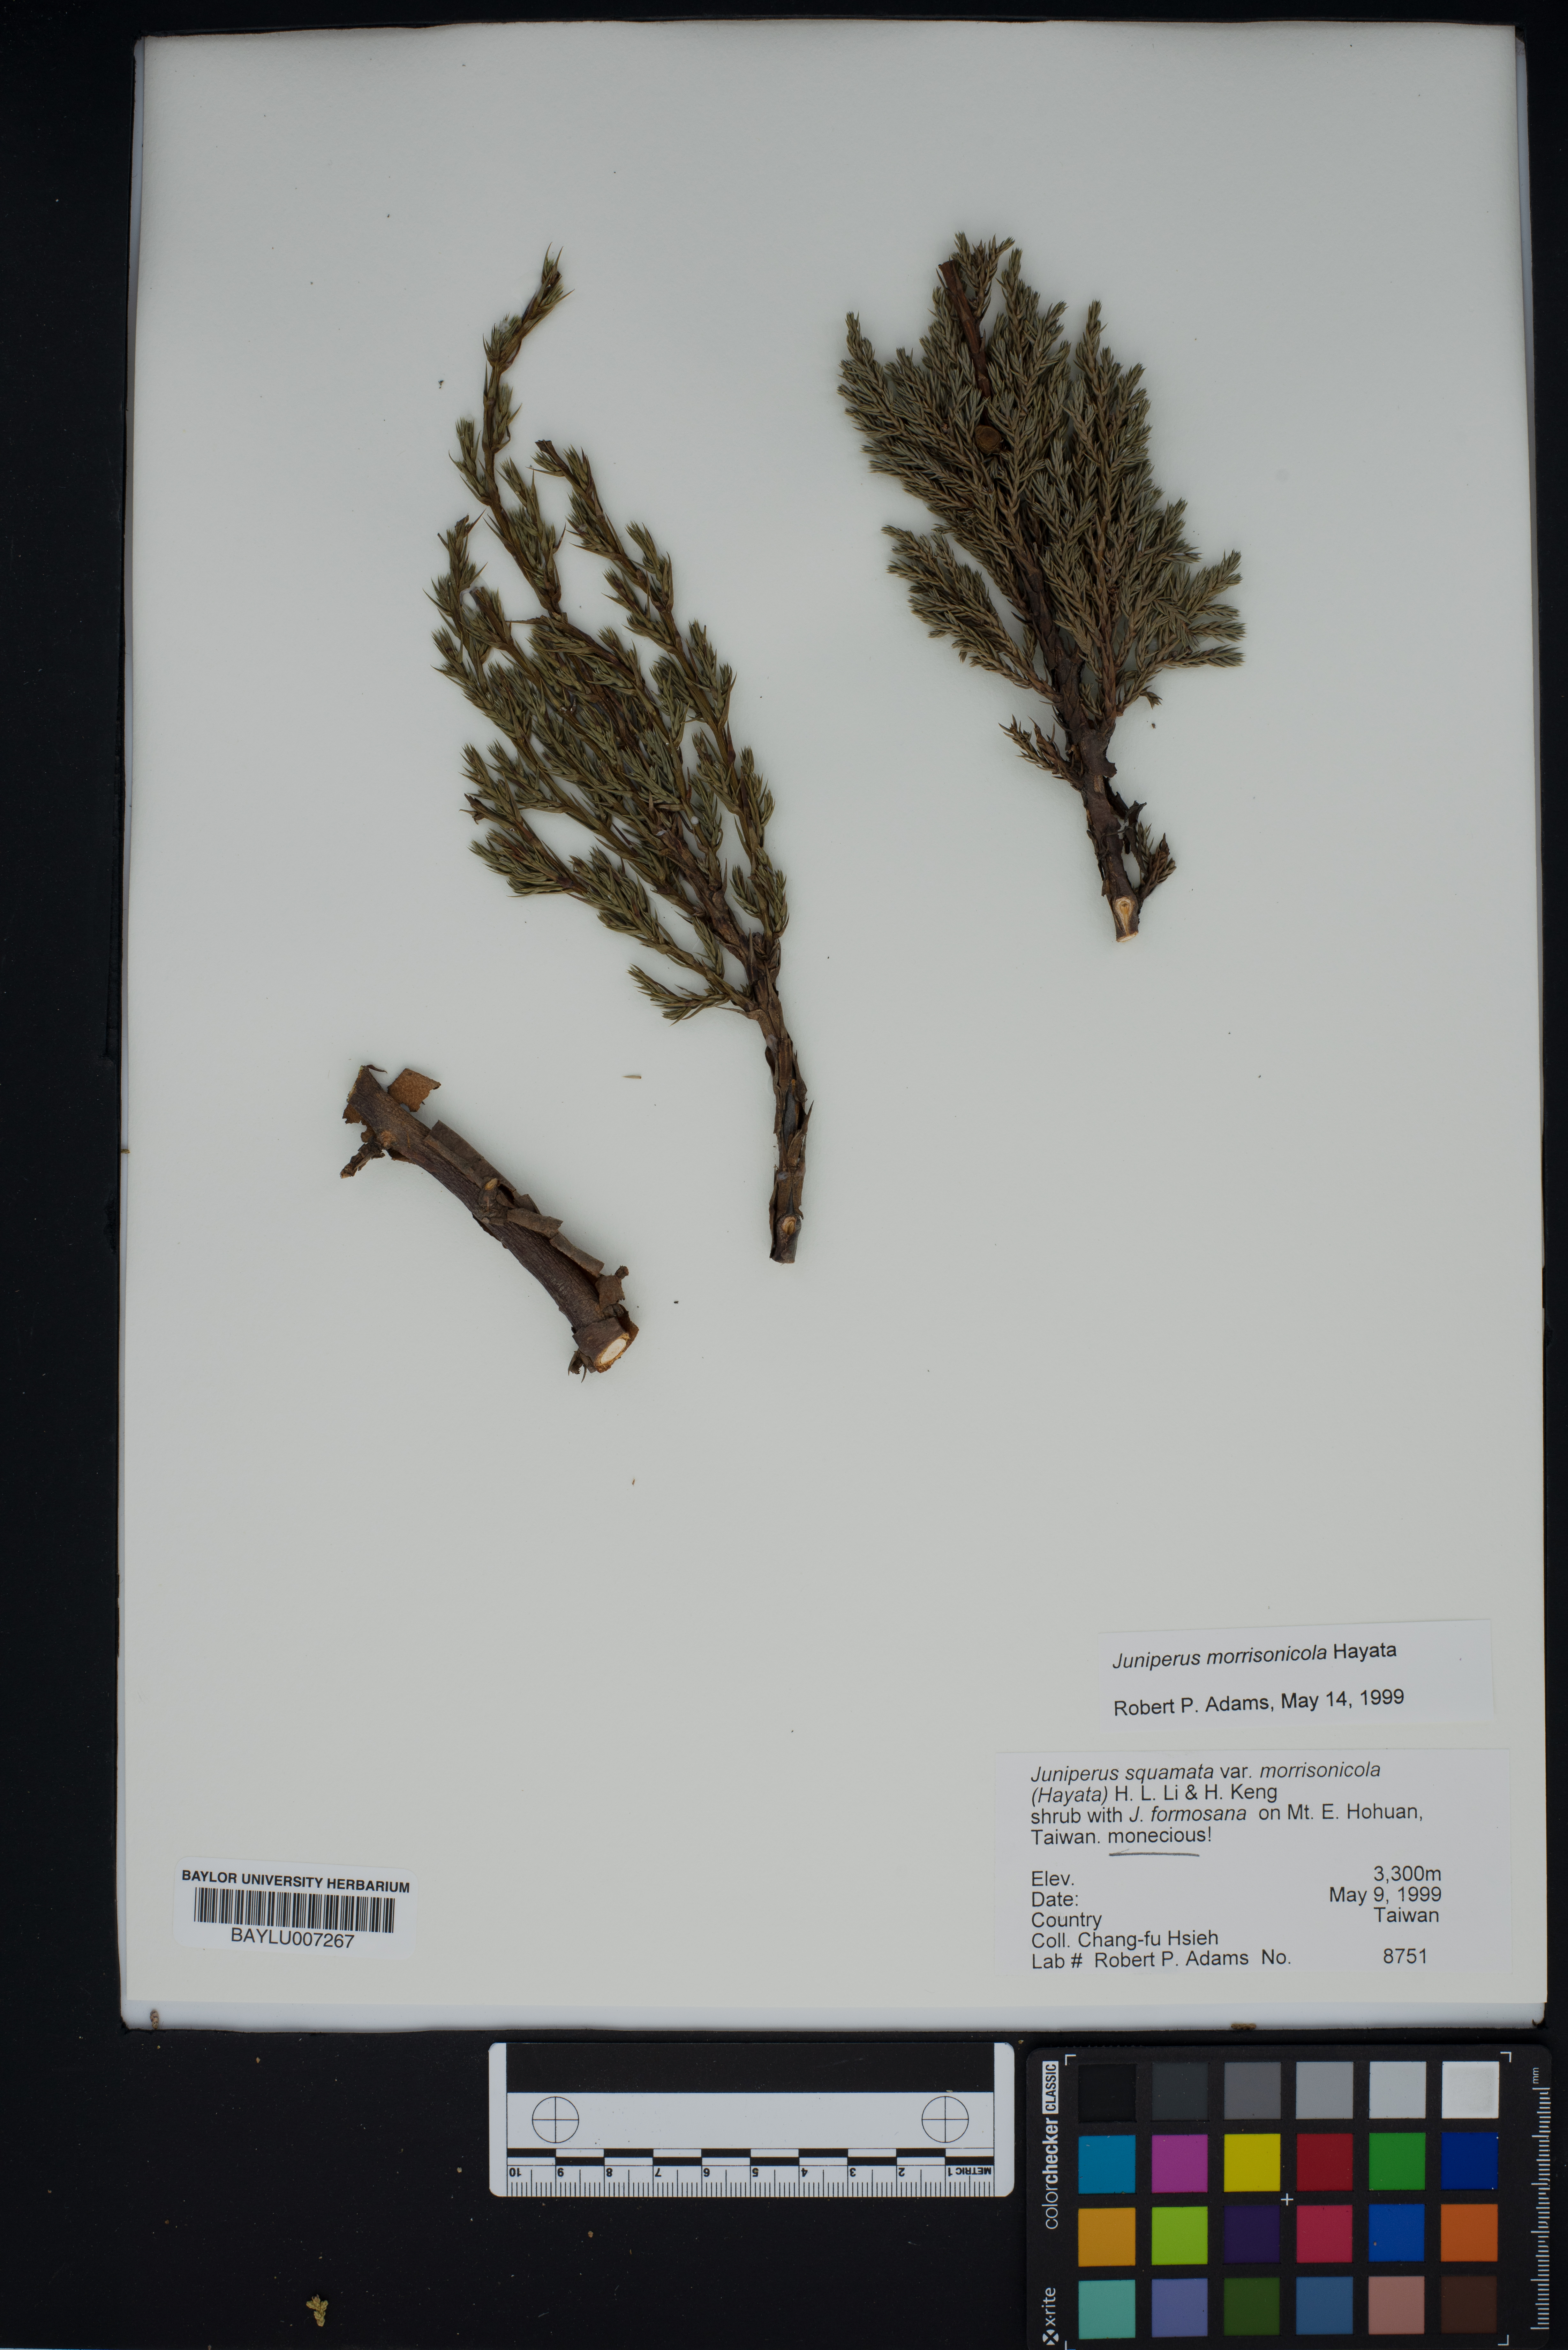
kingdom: Plantae
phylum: Tracheophyta
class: Pinopsida
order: Pinales
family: Cupressaceae
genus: Juniperus
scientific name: Juniperus squamata
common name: Flaky juniper
